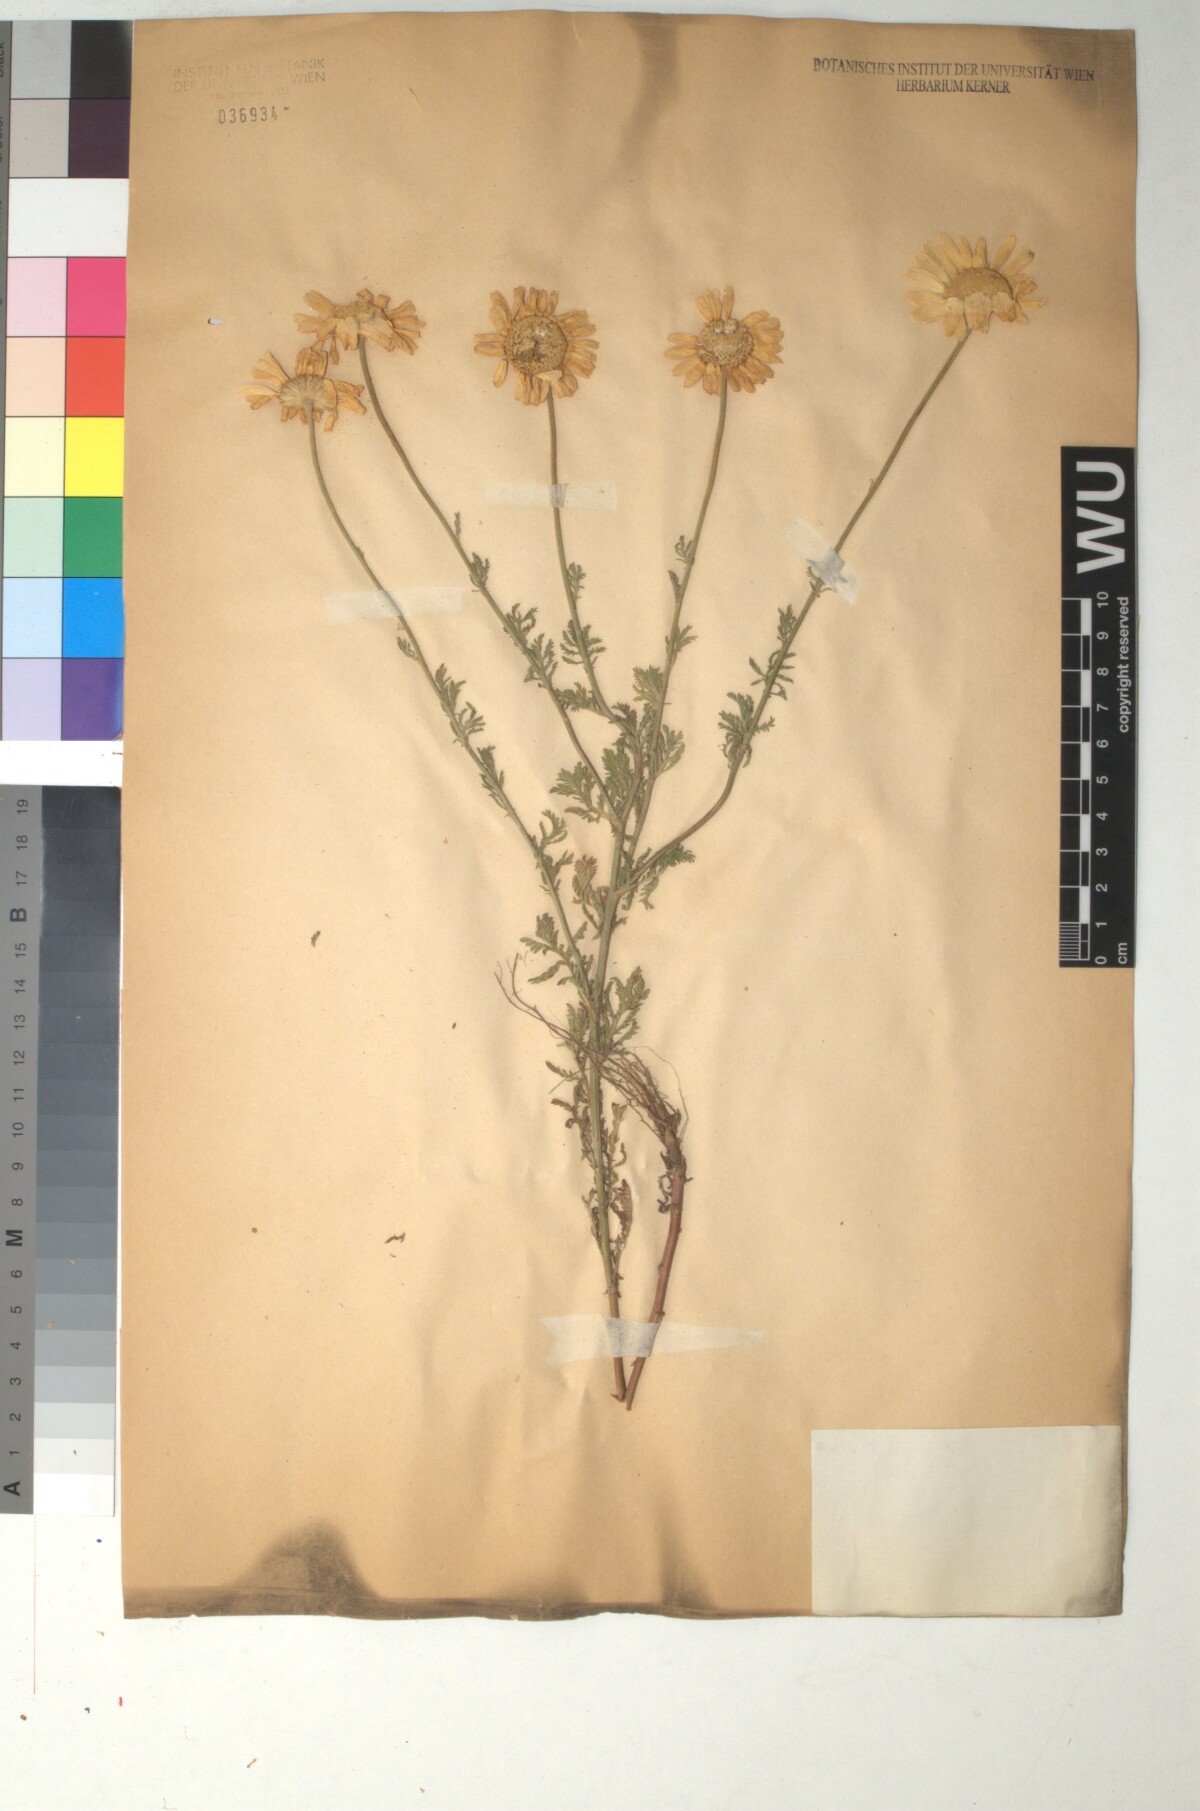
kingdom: Plantae
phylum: Tracheophyta
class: Magnoliopsida
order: Asterales
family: Asteraceae
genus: Cota
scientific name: Cota triumfetti
